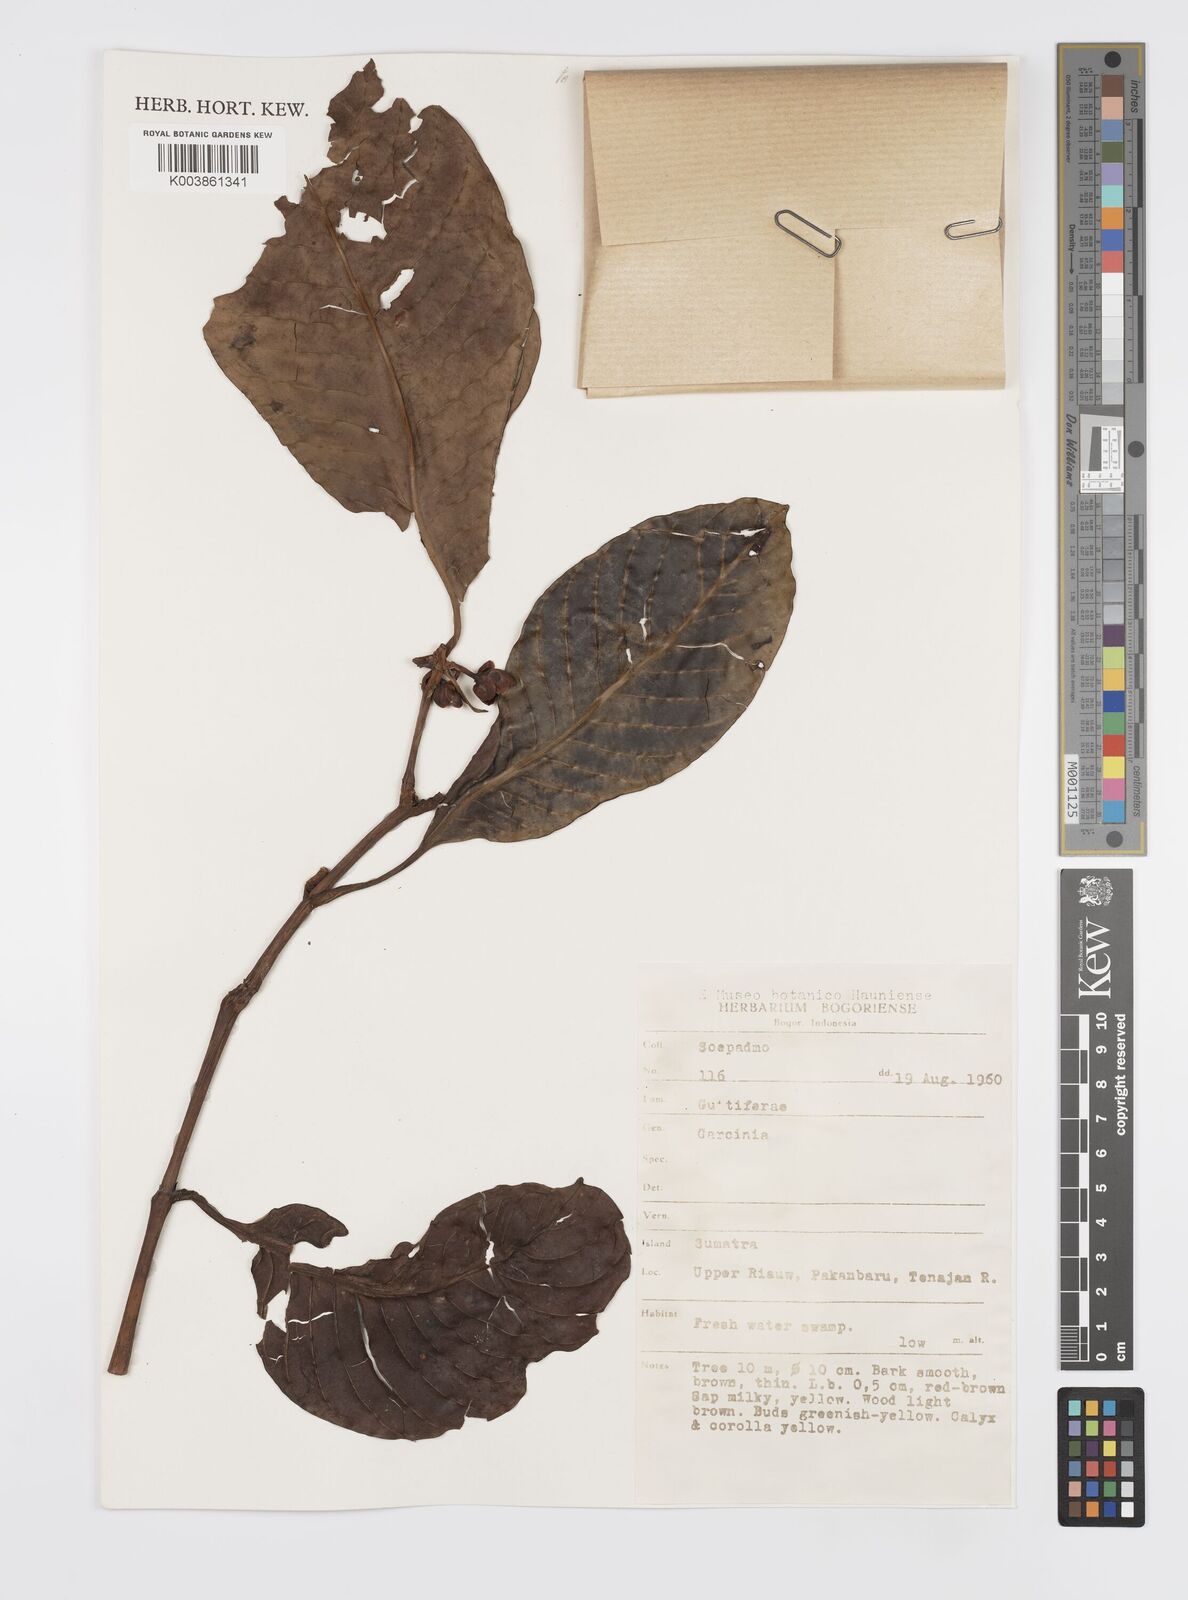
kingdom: Plantae
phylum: Tracheophyta
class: Magnoliopsida
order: Malpighiales
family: Clusiaceae
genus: Garcinia
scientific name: Garcinia
